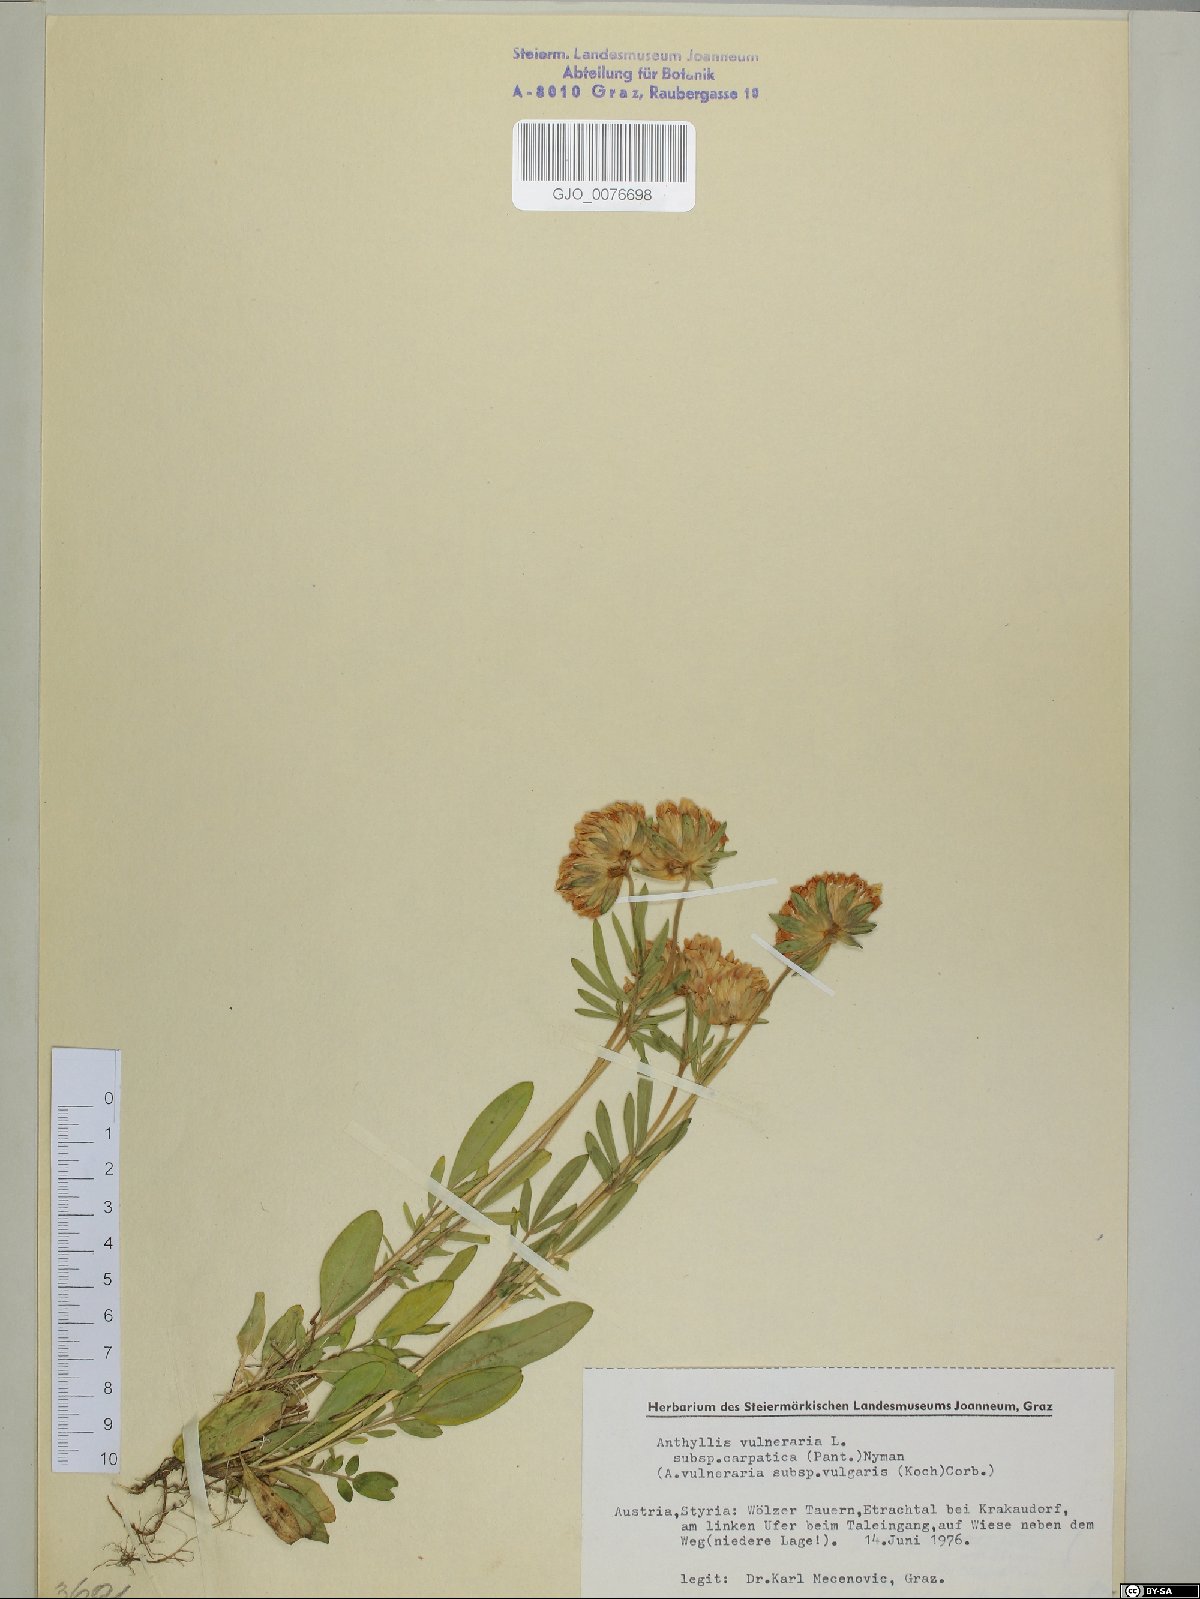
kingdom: Plantae
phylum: Tracheophyta
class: Magnoliopsida
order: Fabales
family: Fabaceae
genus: Anthyllis
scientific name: Anthyllis vulneraria
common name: Kidney vetch
